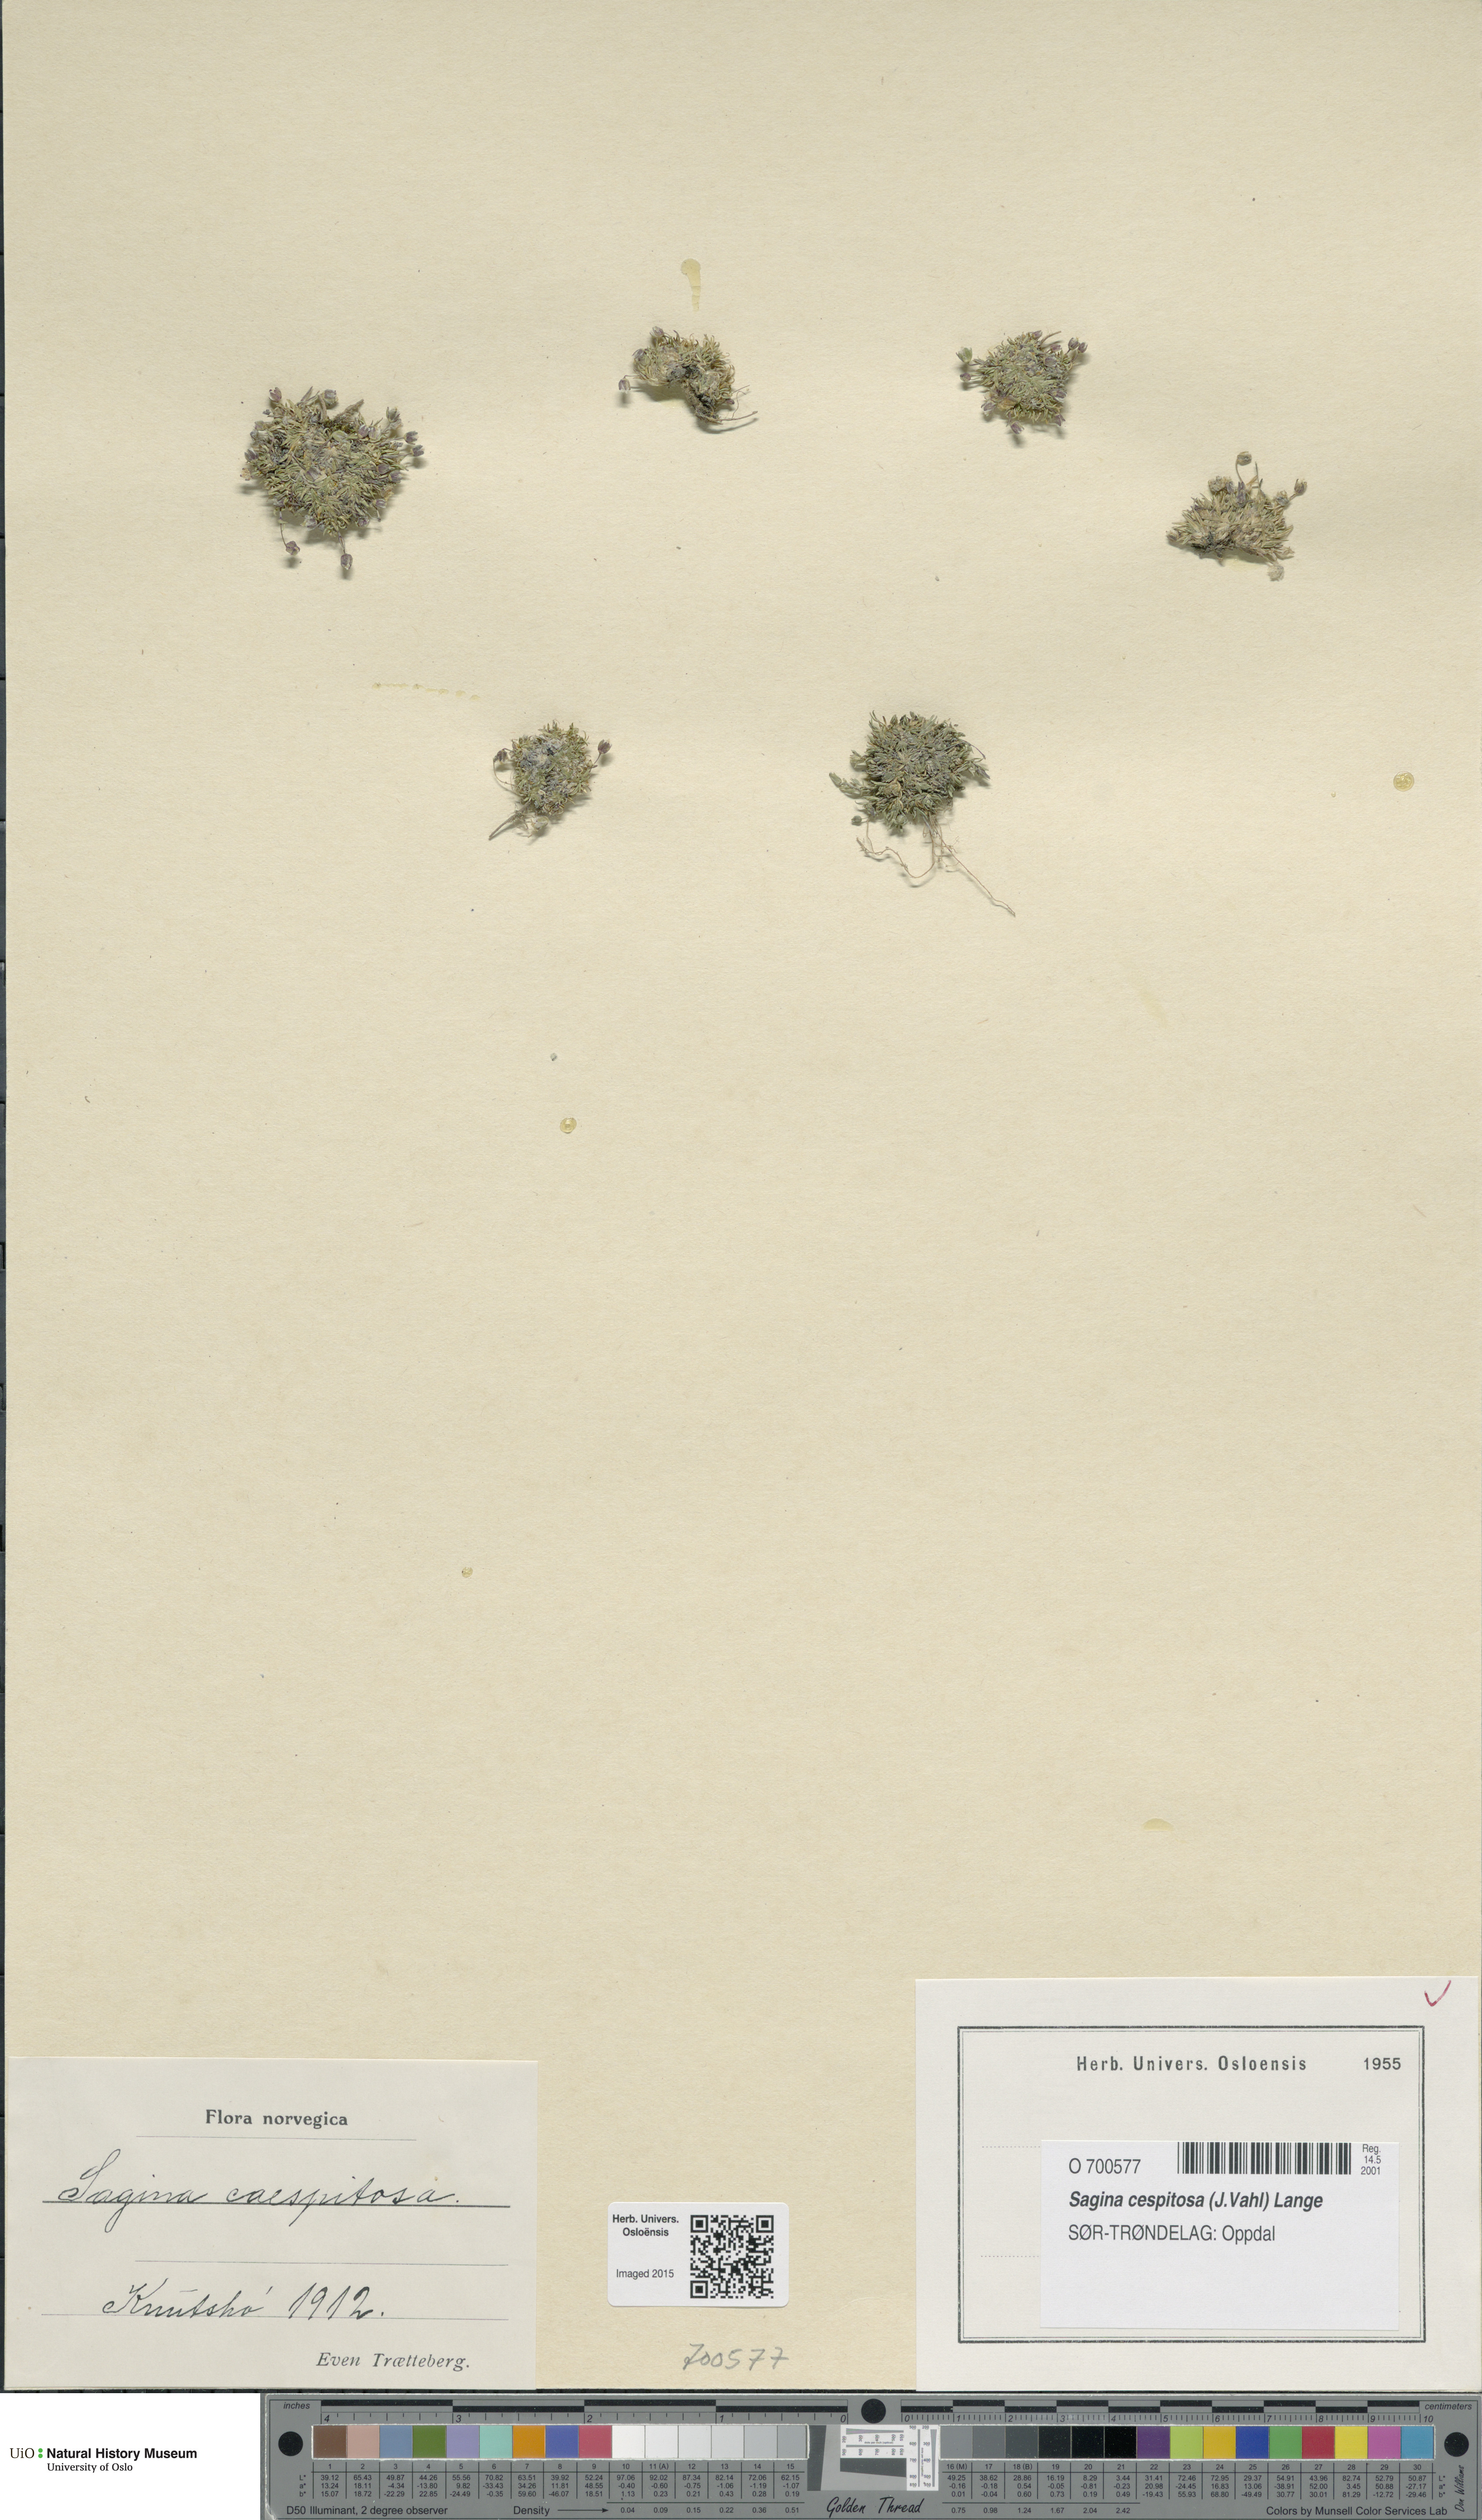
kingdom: Plantae
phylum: Tracheophyta
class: Magnoliopsida
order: Caryophyllales
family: Caryophyllaceae
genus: Sagina
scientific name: Sagina caespitosa
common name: Tufted pearlwort
